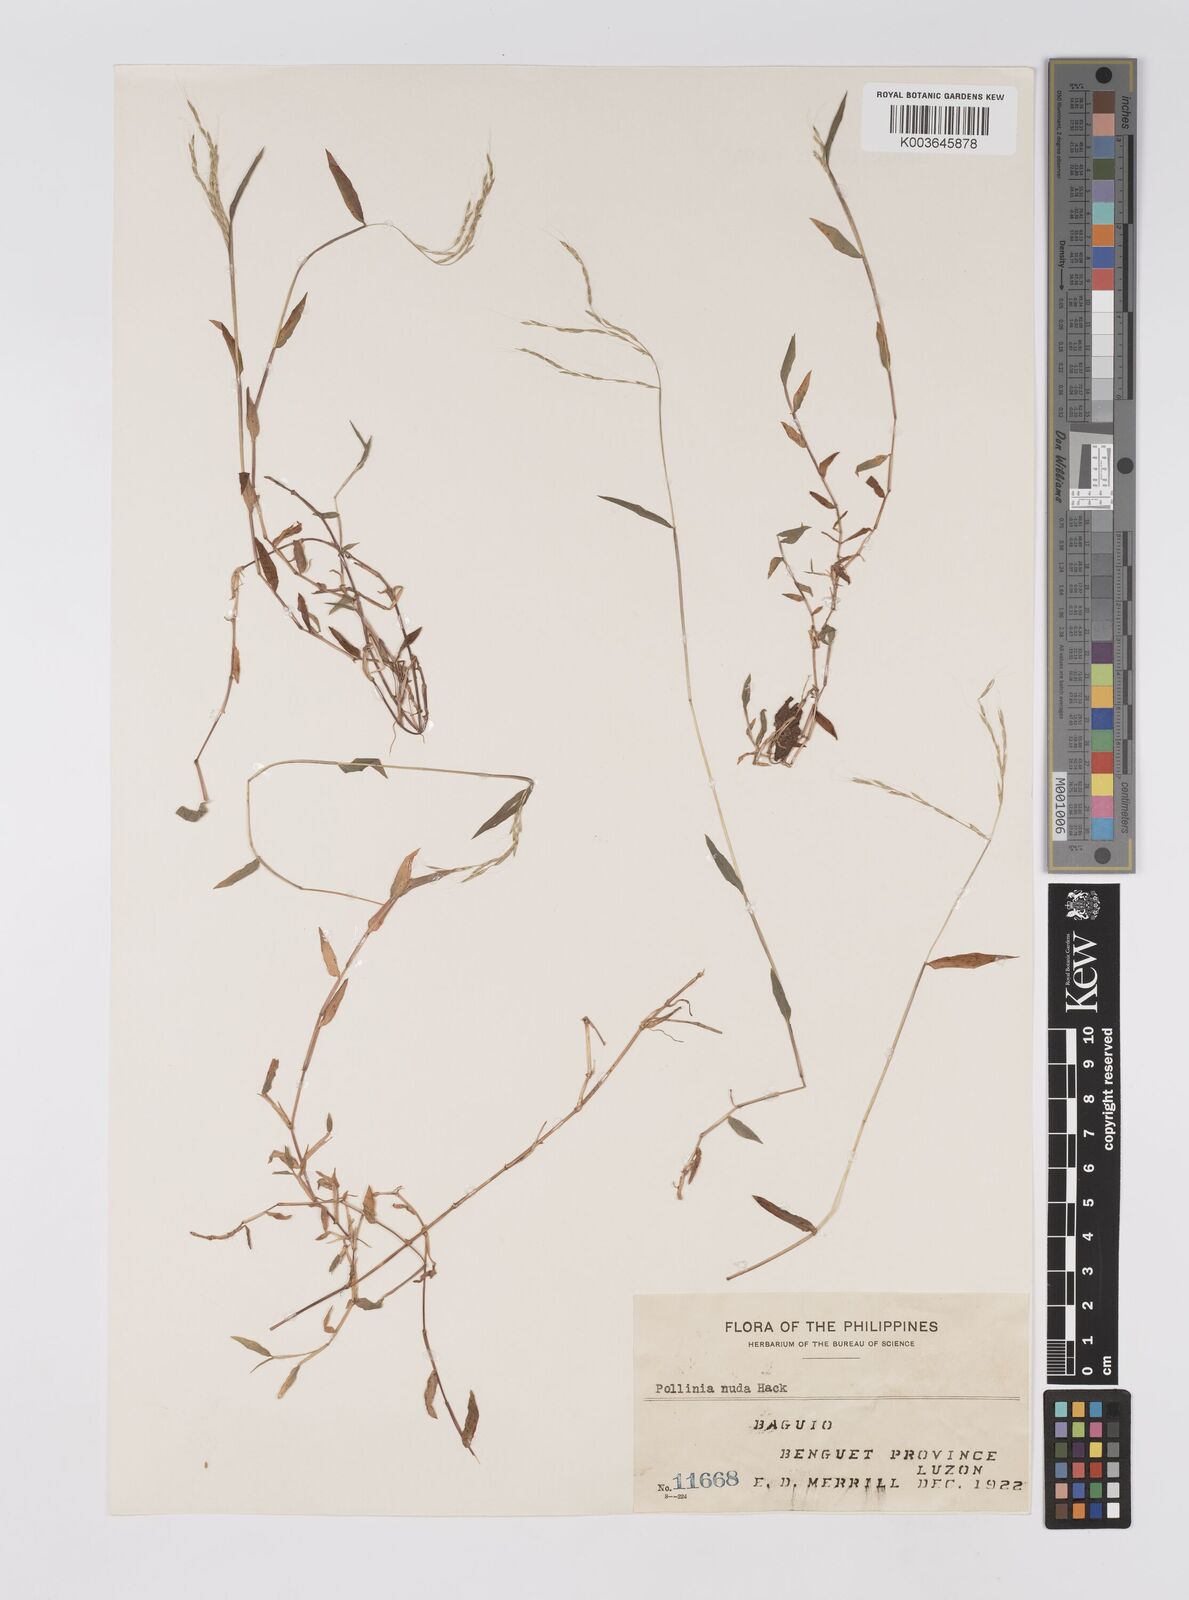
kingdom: Plantae
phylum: Tracheophyta
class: Liliopsida
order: Poales
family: Poaceae
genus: Microstegium
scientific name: Microstegium nudum
